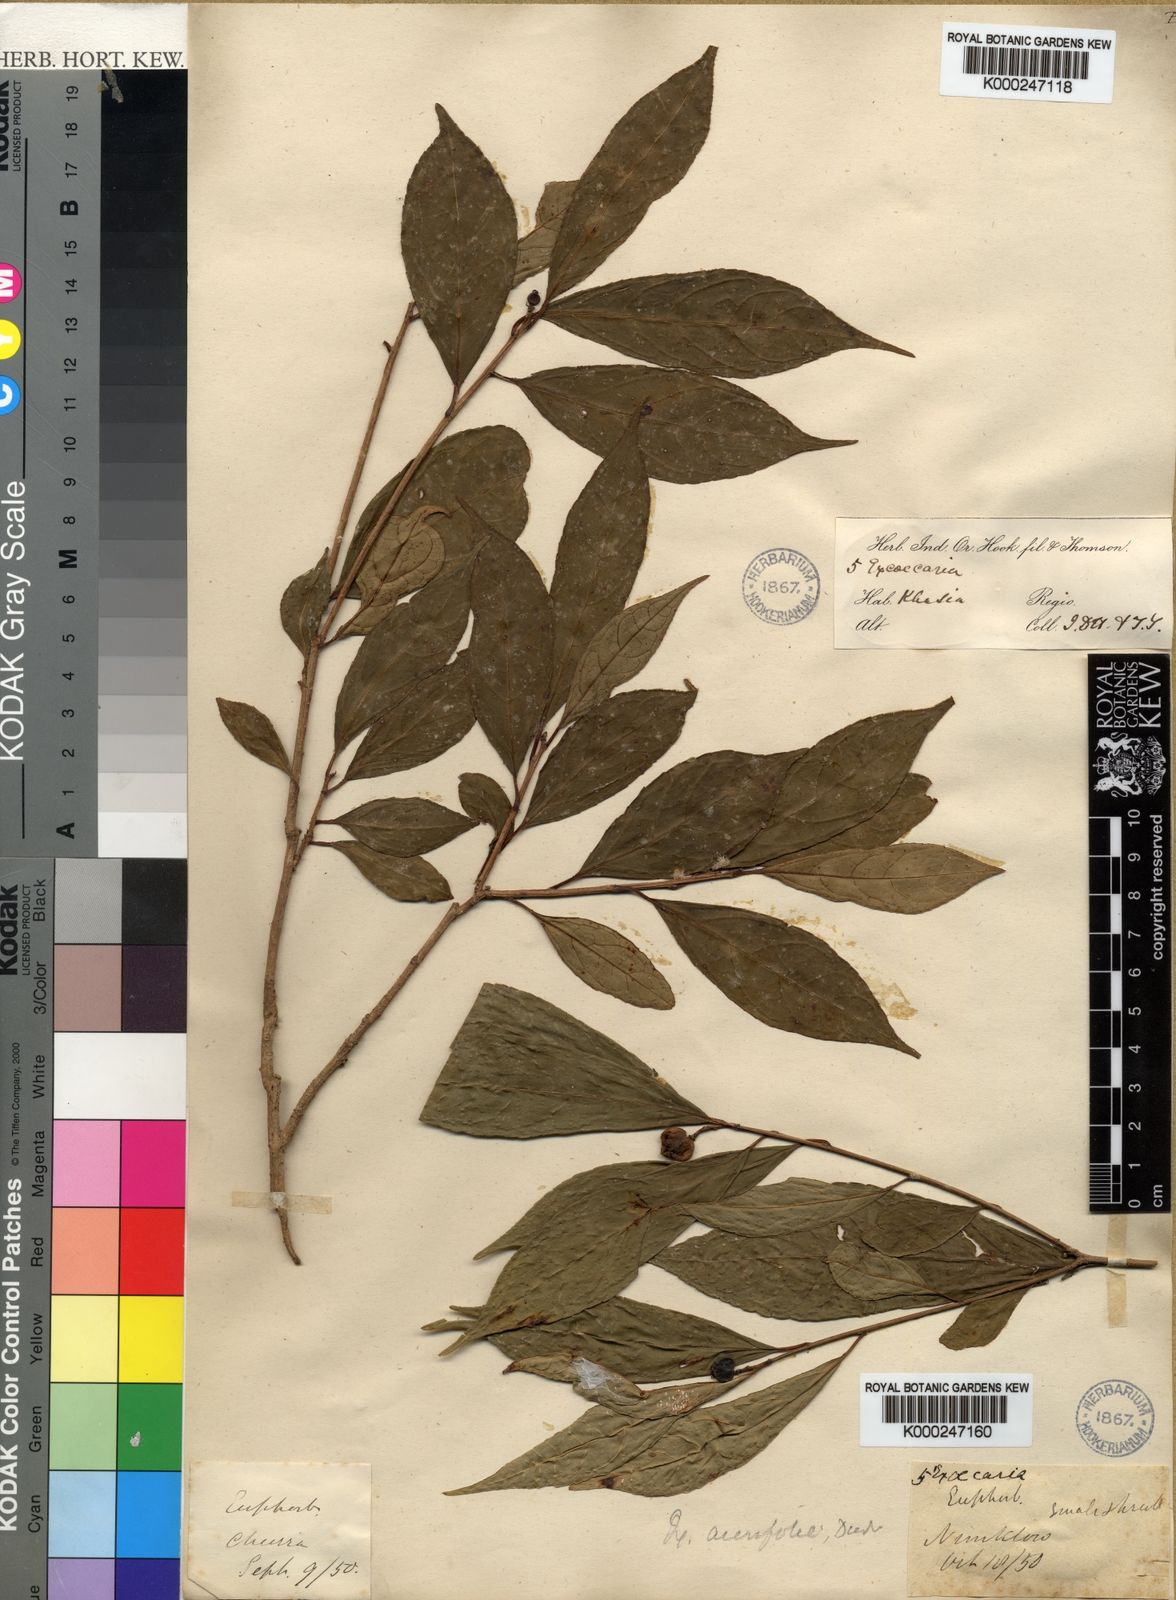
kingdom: Plantae
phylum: Tracheophyta
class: Magnoliopsida
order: Malpighiales
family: Euphorbiaceae
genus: Excoecaria
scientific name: Excoecaria acerifolia
